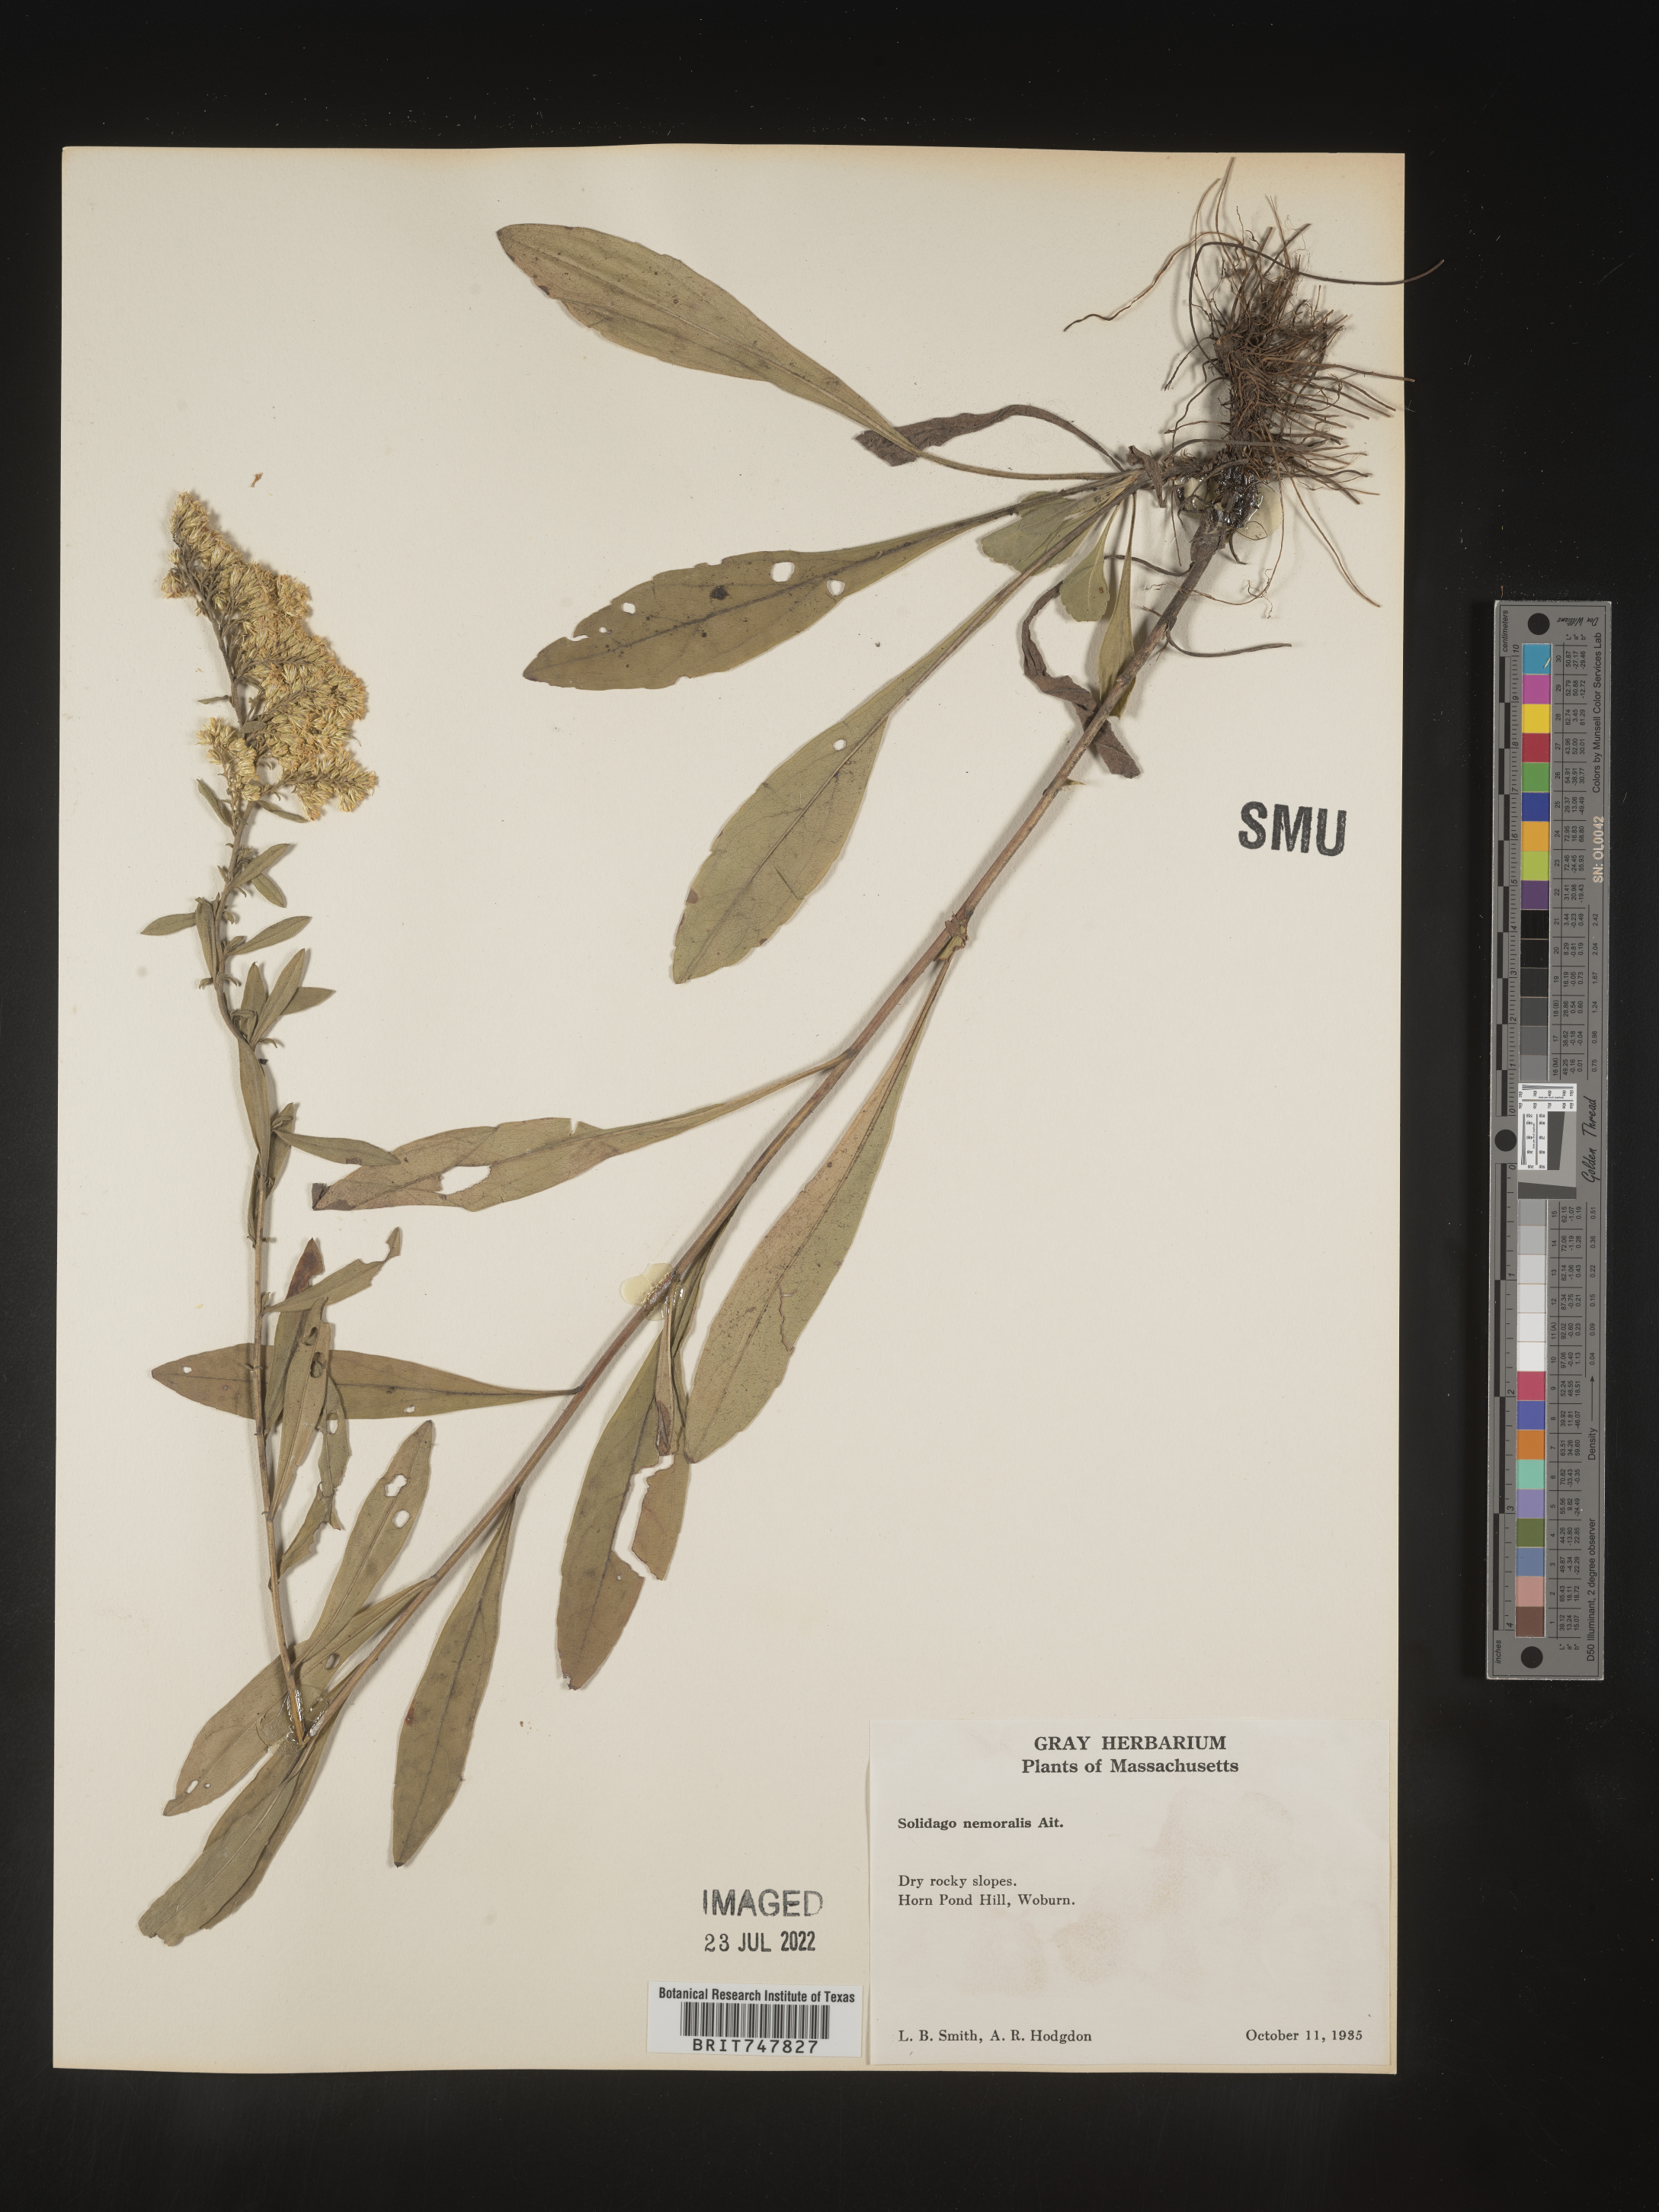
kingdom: Plantae
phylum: Tracheophyta
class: Magnoliopsida
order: Asterales
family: Asteraceae
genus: Solidago
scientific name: Solidago nemoralis
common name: Grey goldenrod
